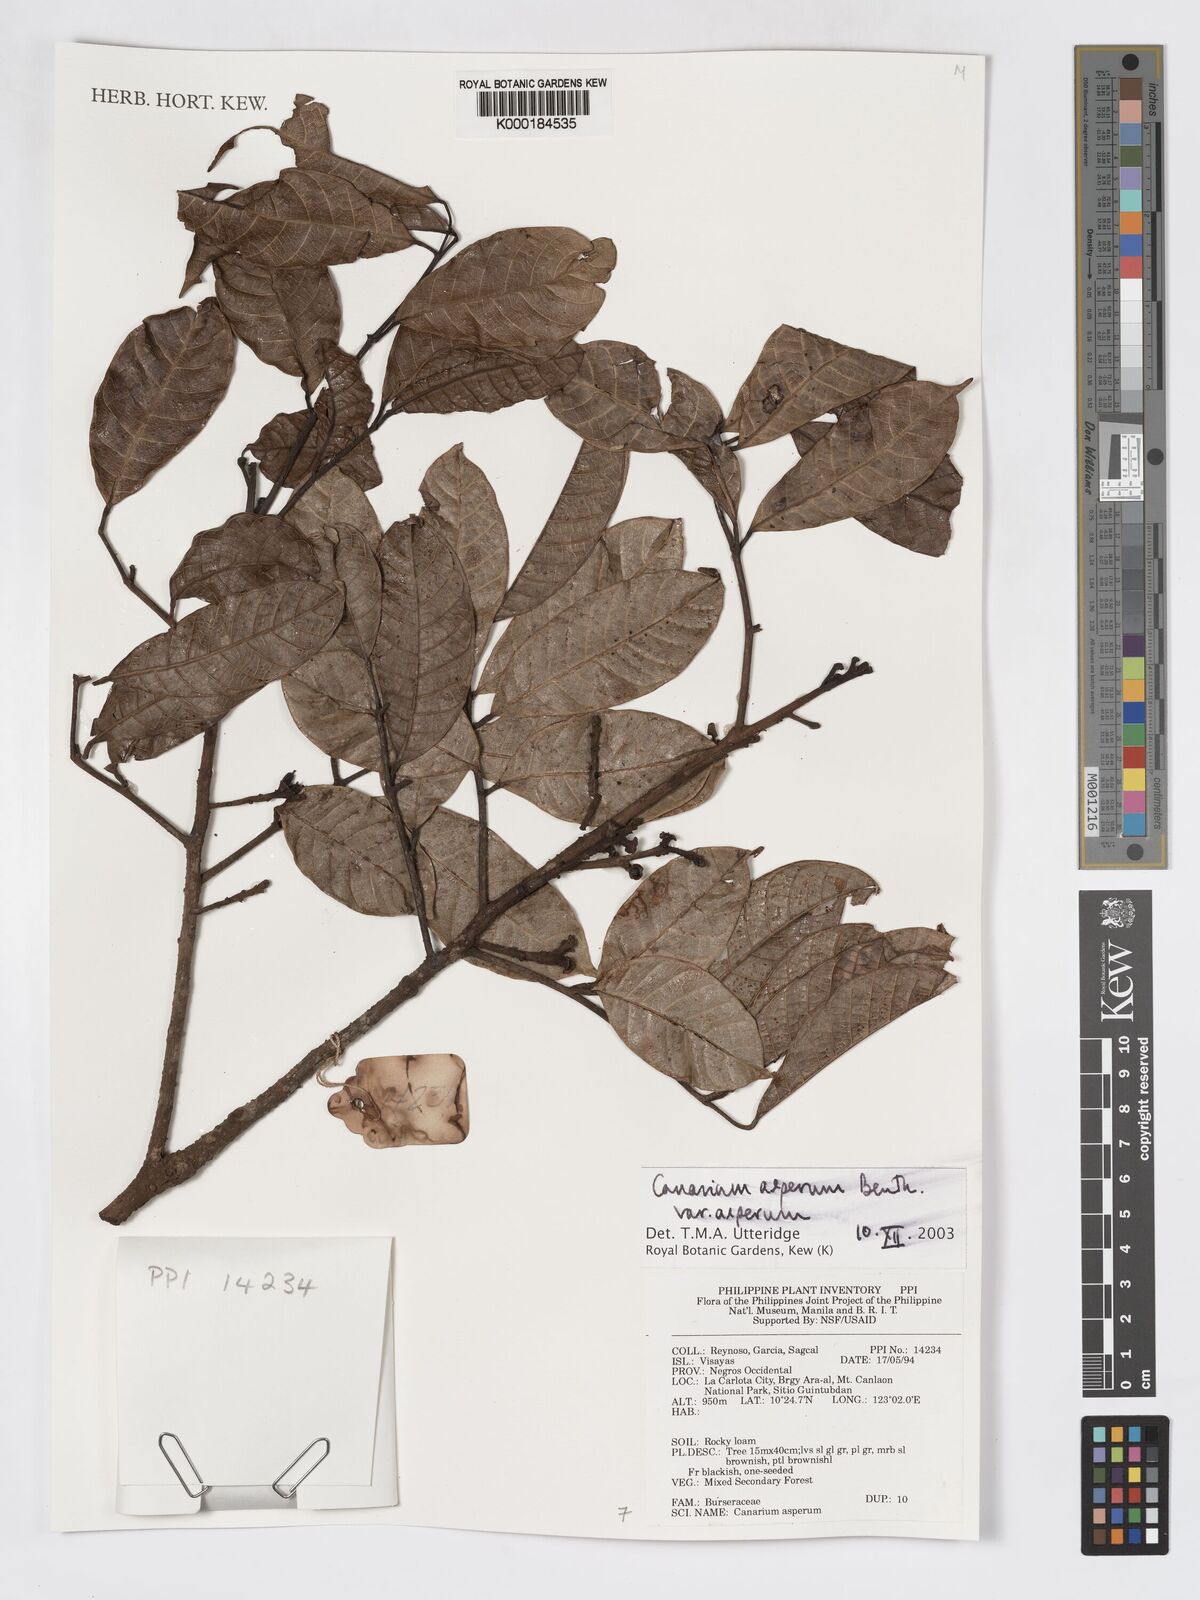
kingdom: Plantae
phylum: Tracheophyta
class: Magnoliopsida
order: Sapindales
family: Burseraceae
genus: Canarium
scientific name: Canarium asperum
